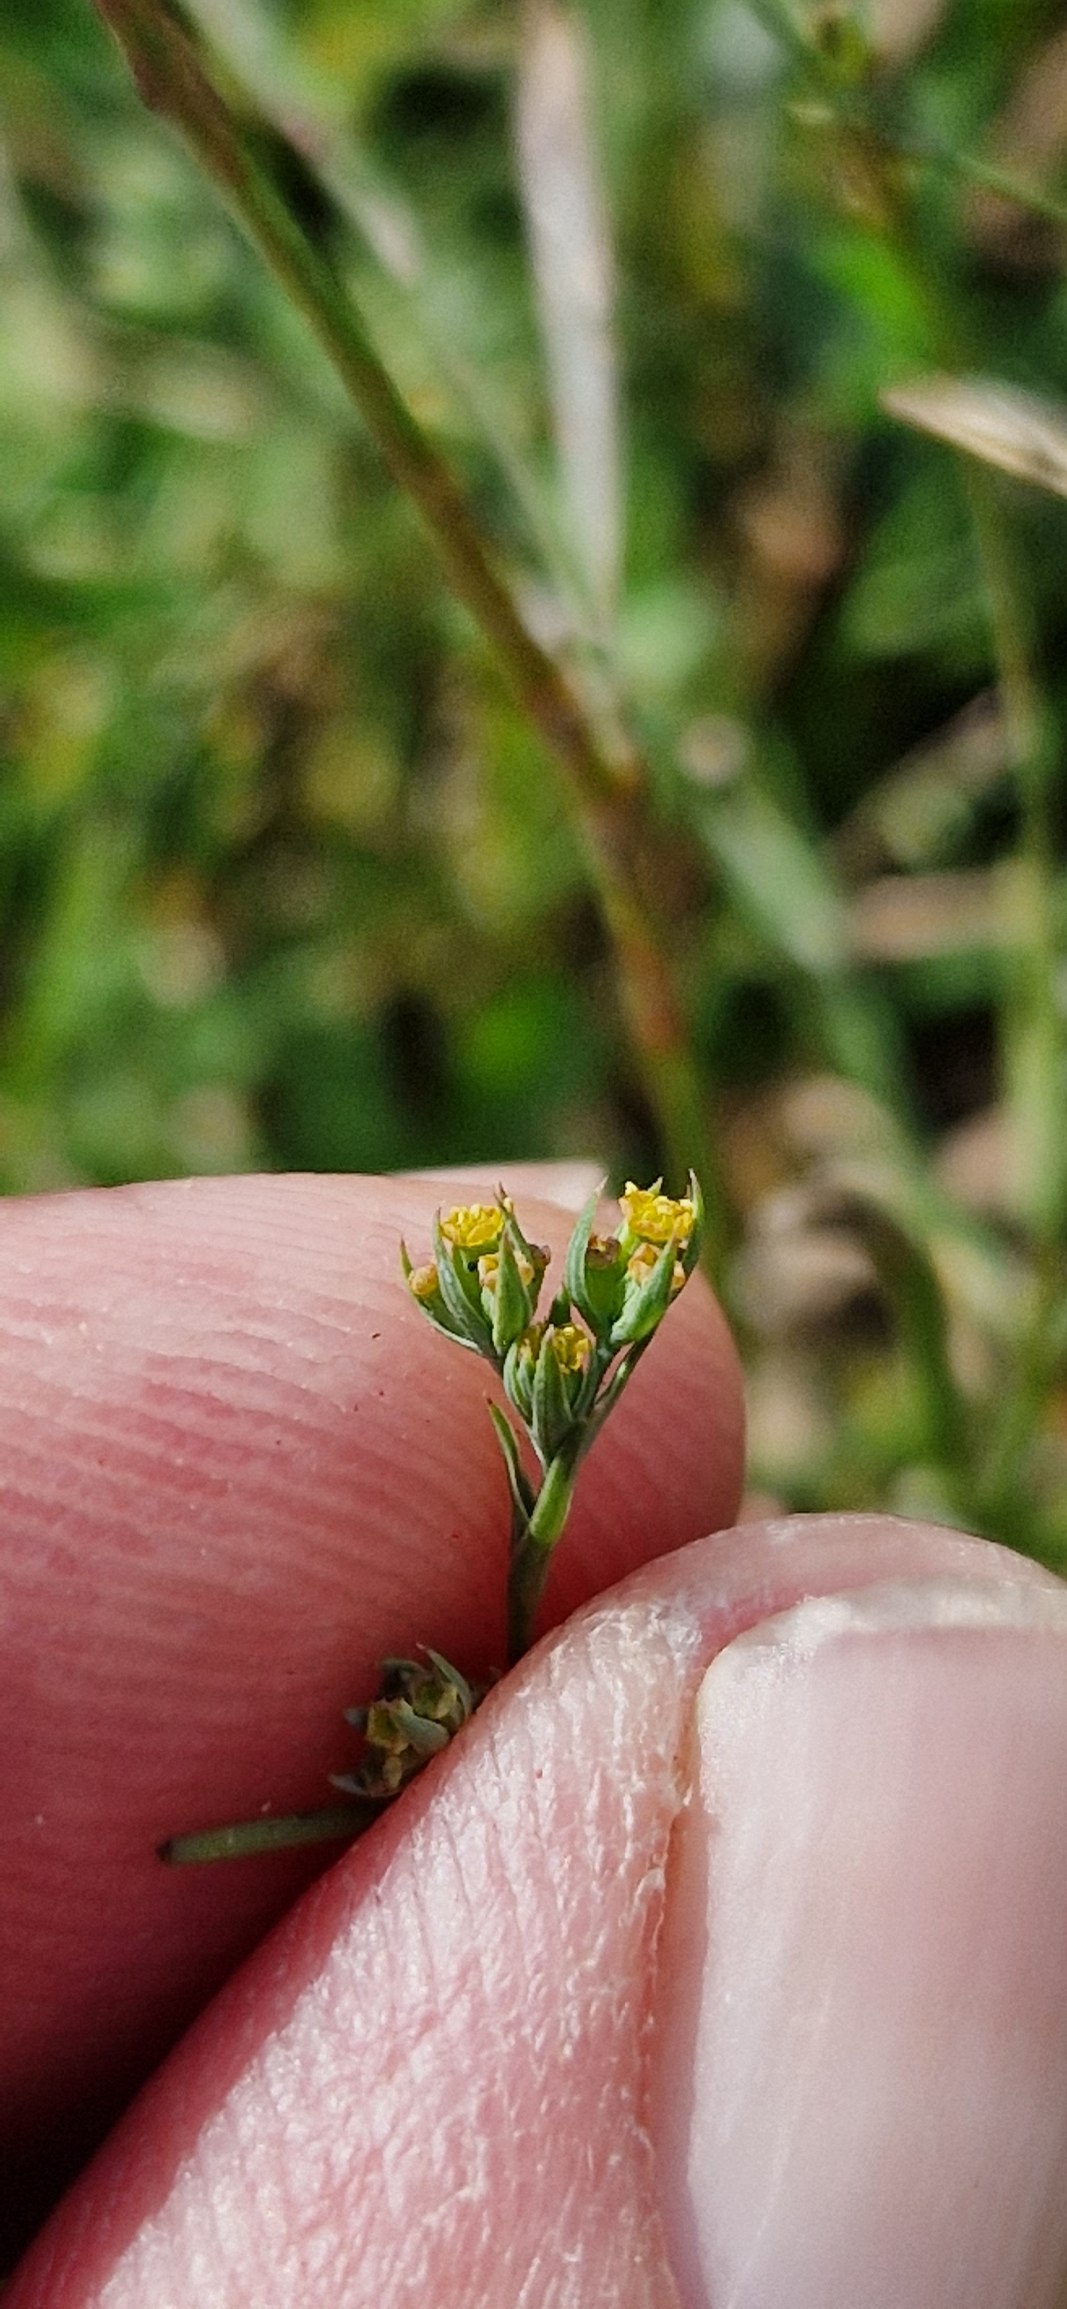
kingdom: Plantae
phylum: Tracheophyta
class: Magnoliopsida
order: Apiales
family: Apiaceae
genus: Bupleurum
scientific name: Bupleurum tenuissimum
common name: Smalbladet hareøre
